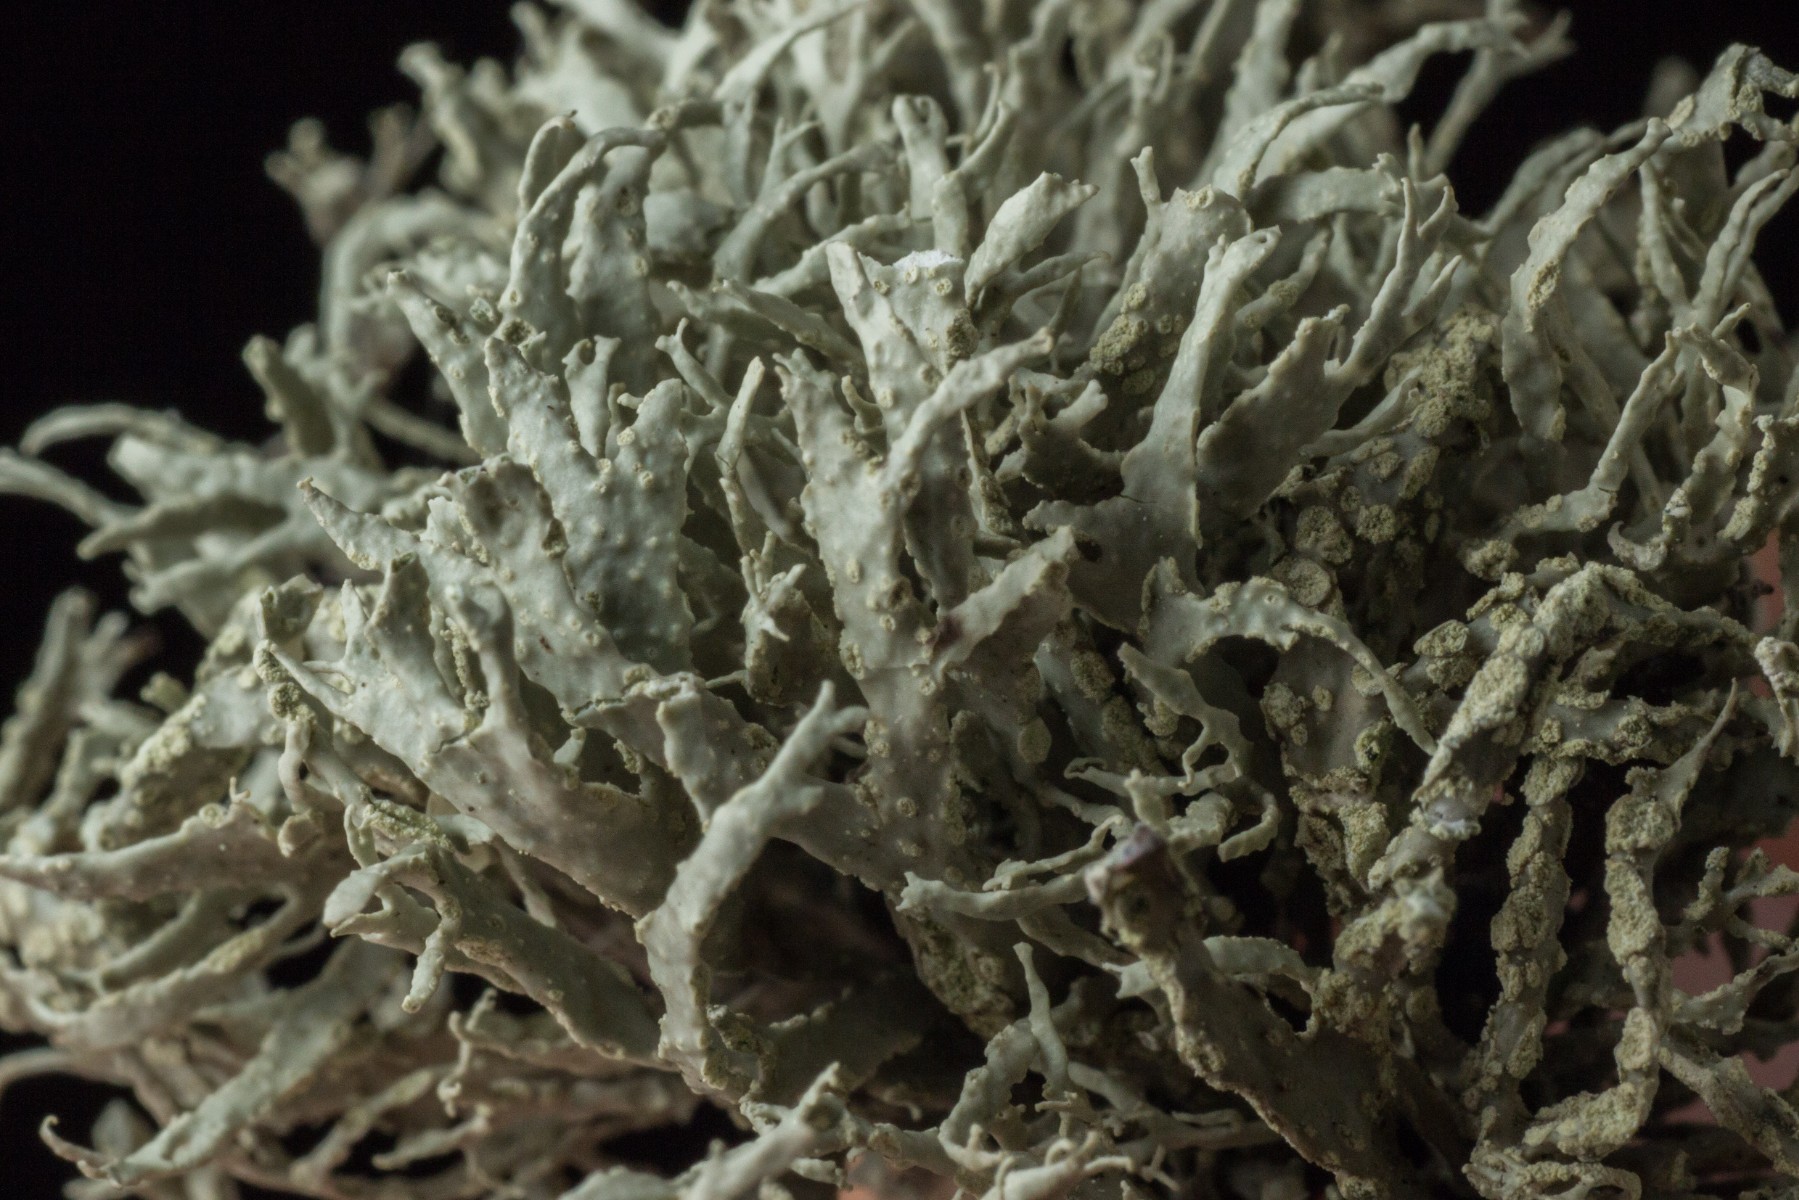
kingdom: Fungi
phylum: Ascomycota
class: Lecanoromycetes
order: Lecanorales
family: Ramalinaceae
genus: Ramalina
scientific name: Ramalina subfarinacea
